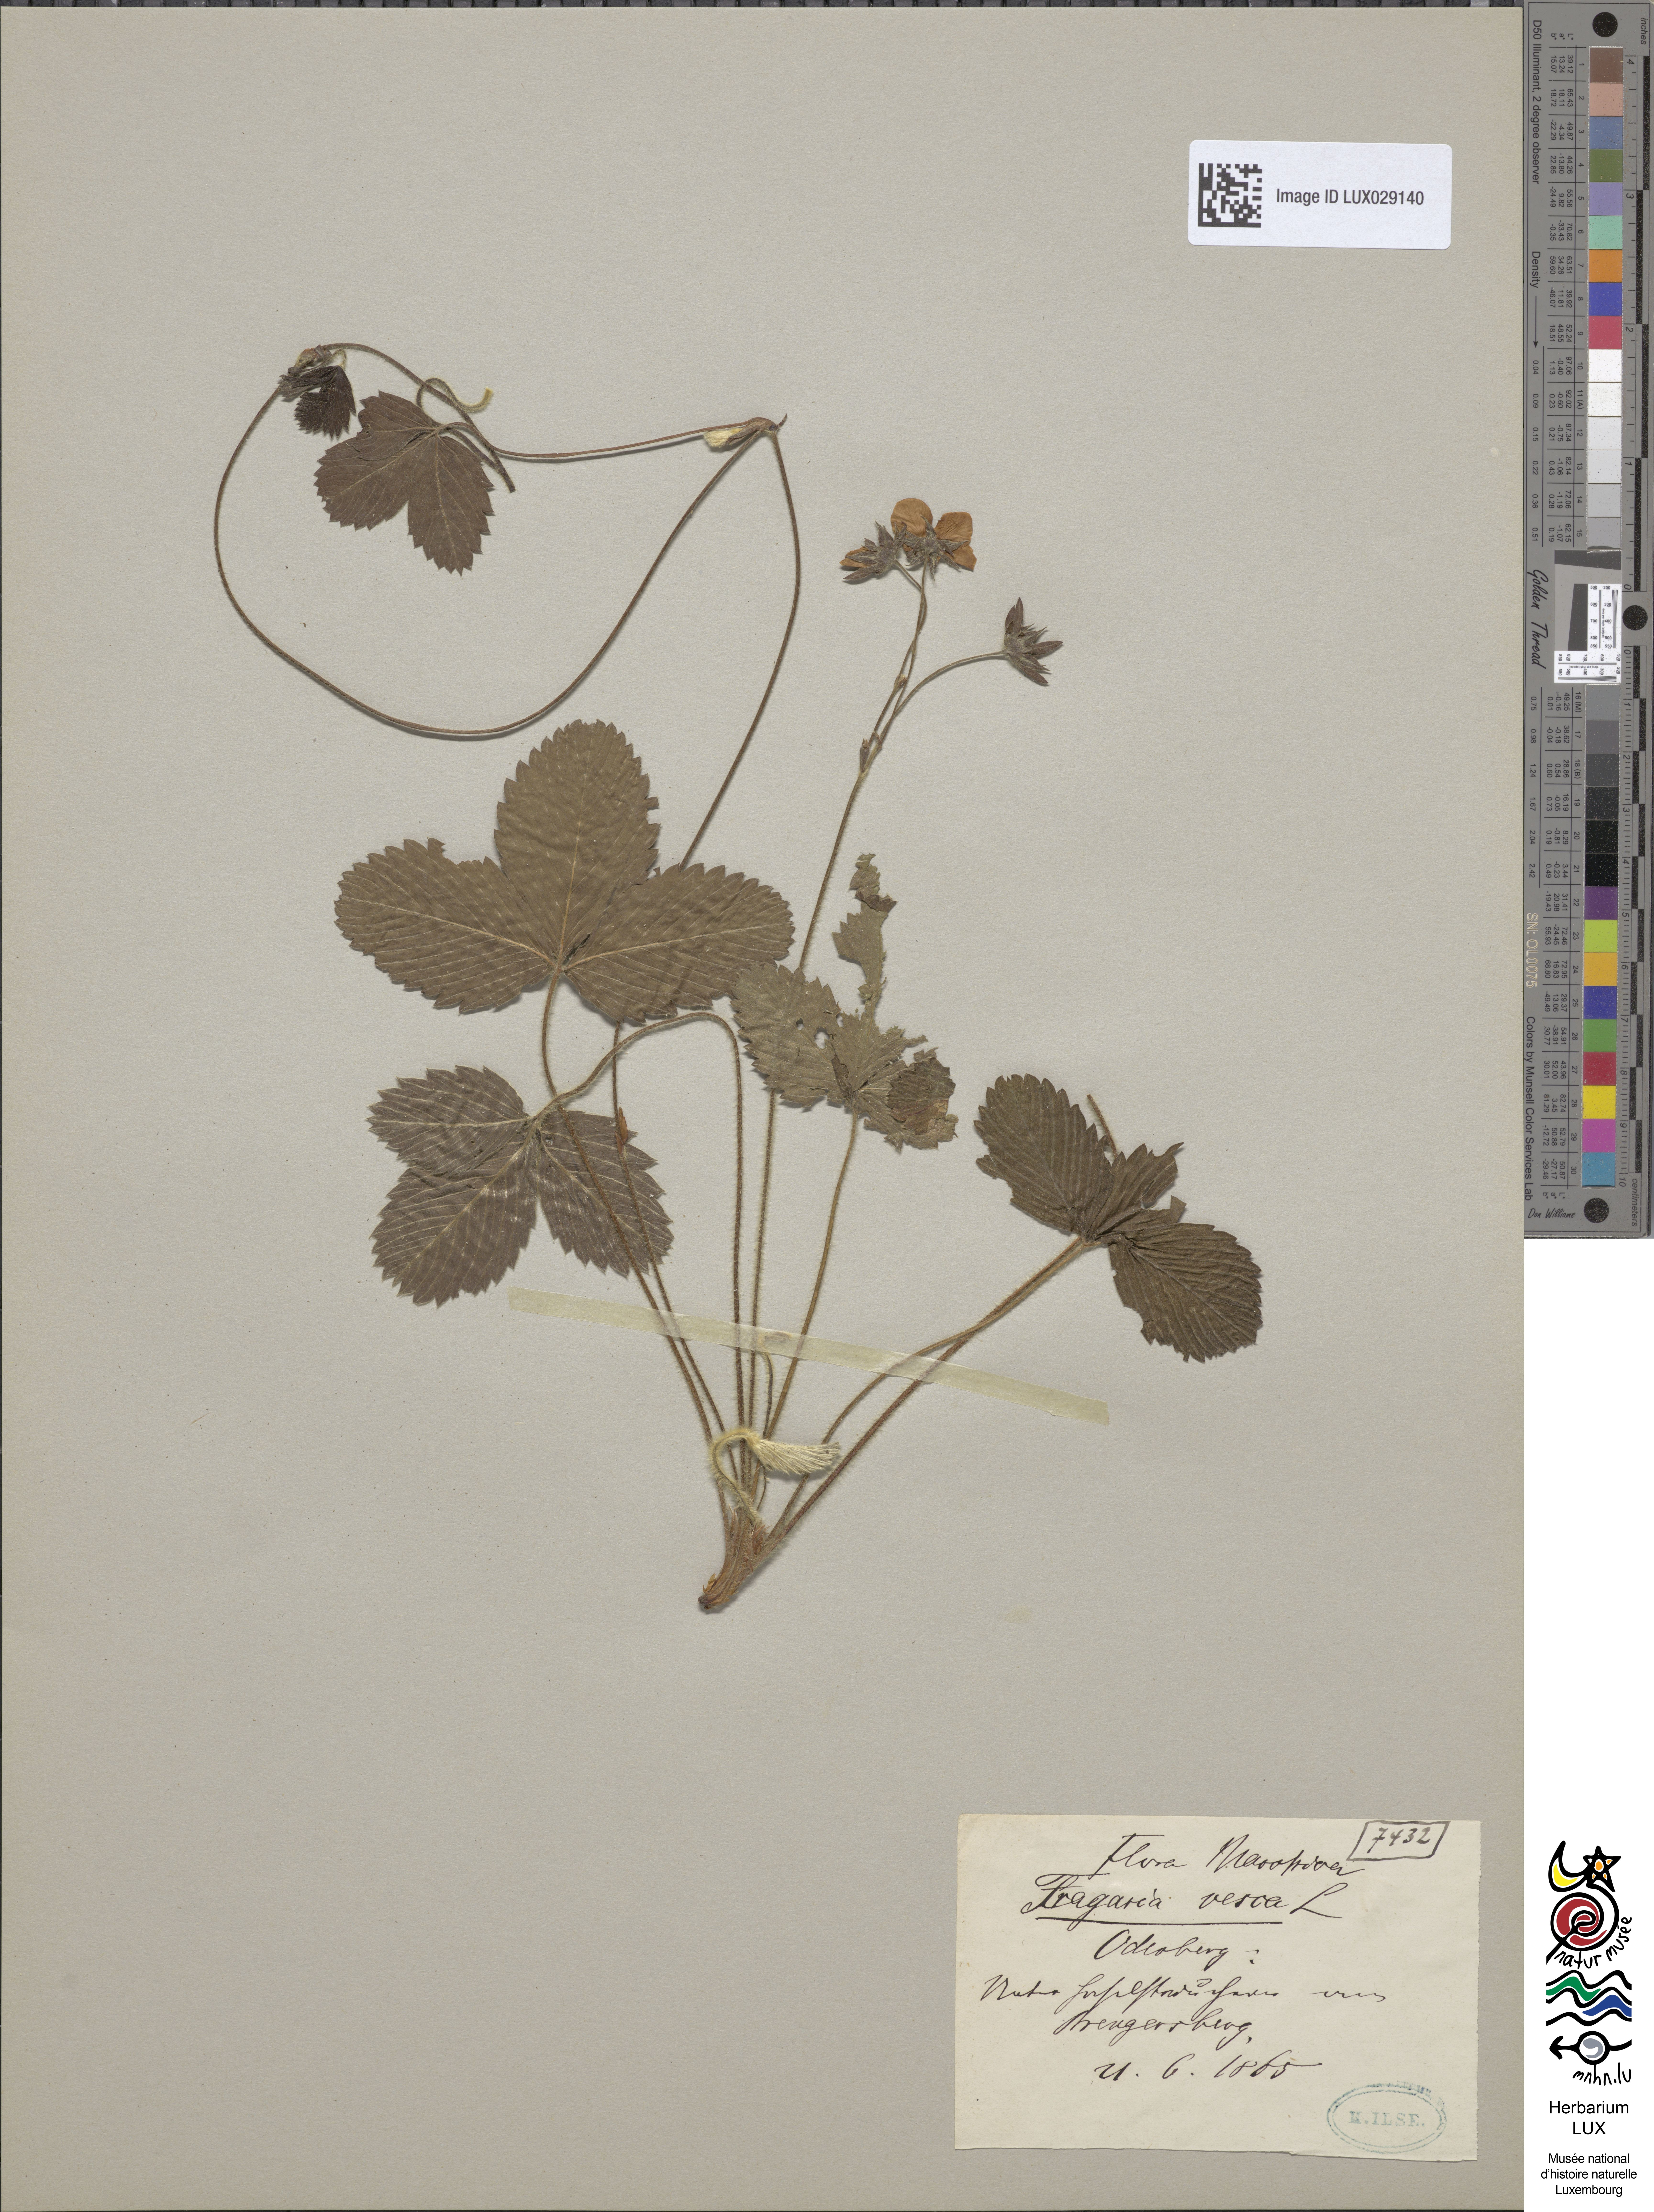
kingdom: Plantae
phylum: Tracheophyta
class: Magnoliopsida
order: Rosales
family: Rosaceae
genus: Fragaria
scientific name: Fragaria vesca
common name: Wild strawberry
